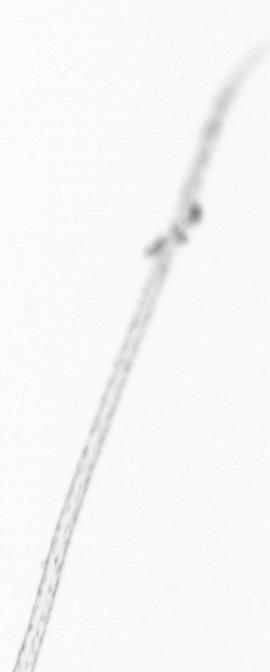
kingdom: Chromista
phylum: Ochrophyta
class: Bacillariophyceae
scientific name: Bacillariophyceae
